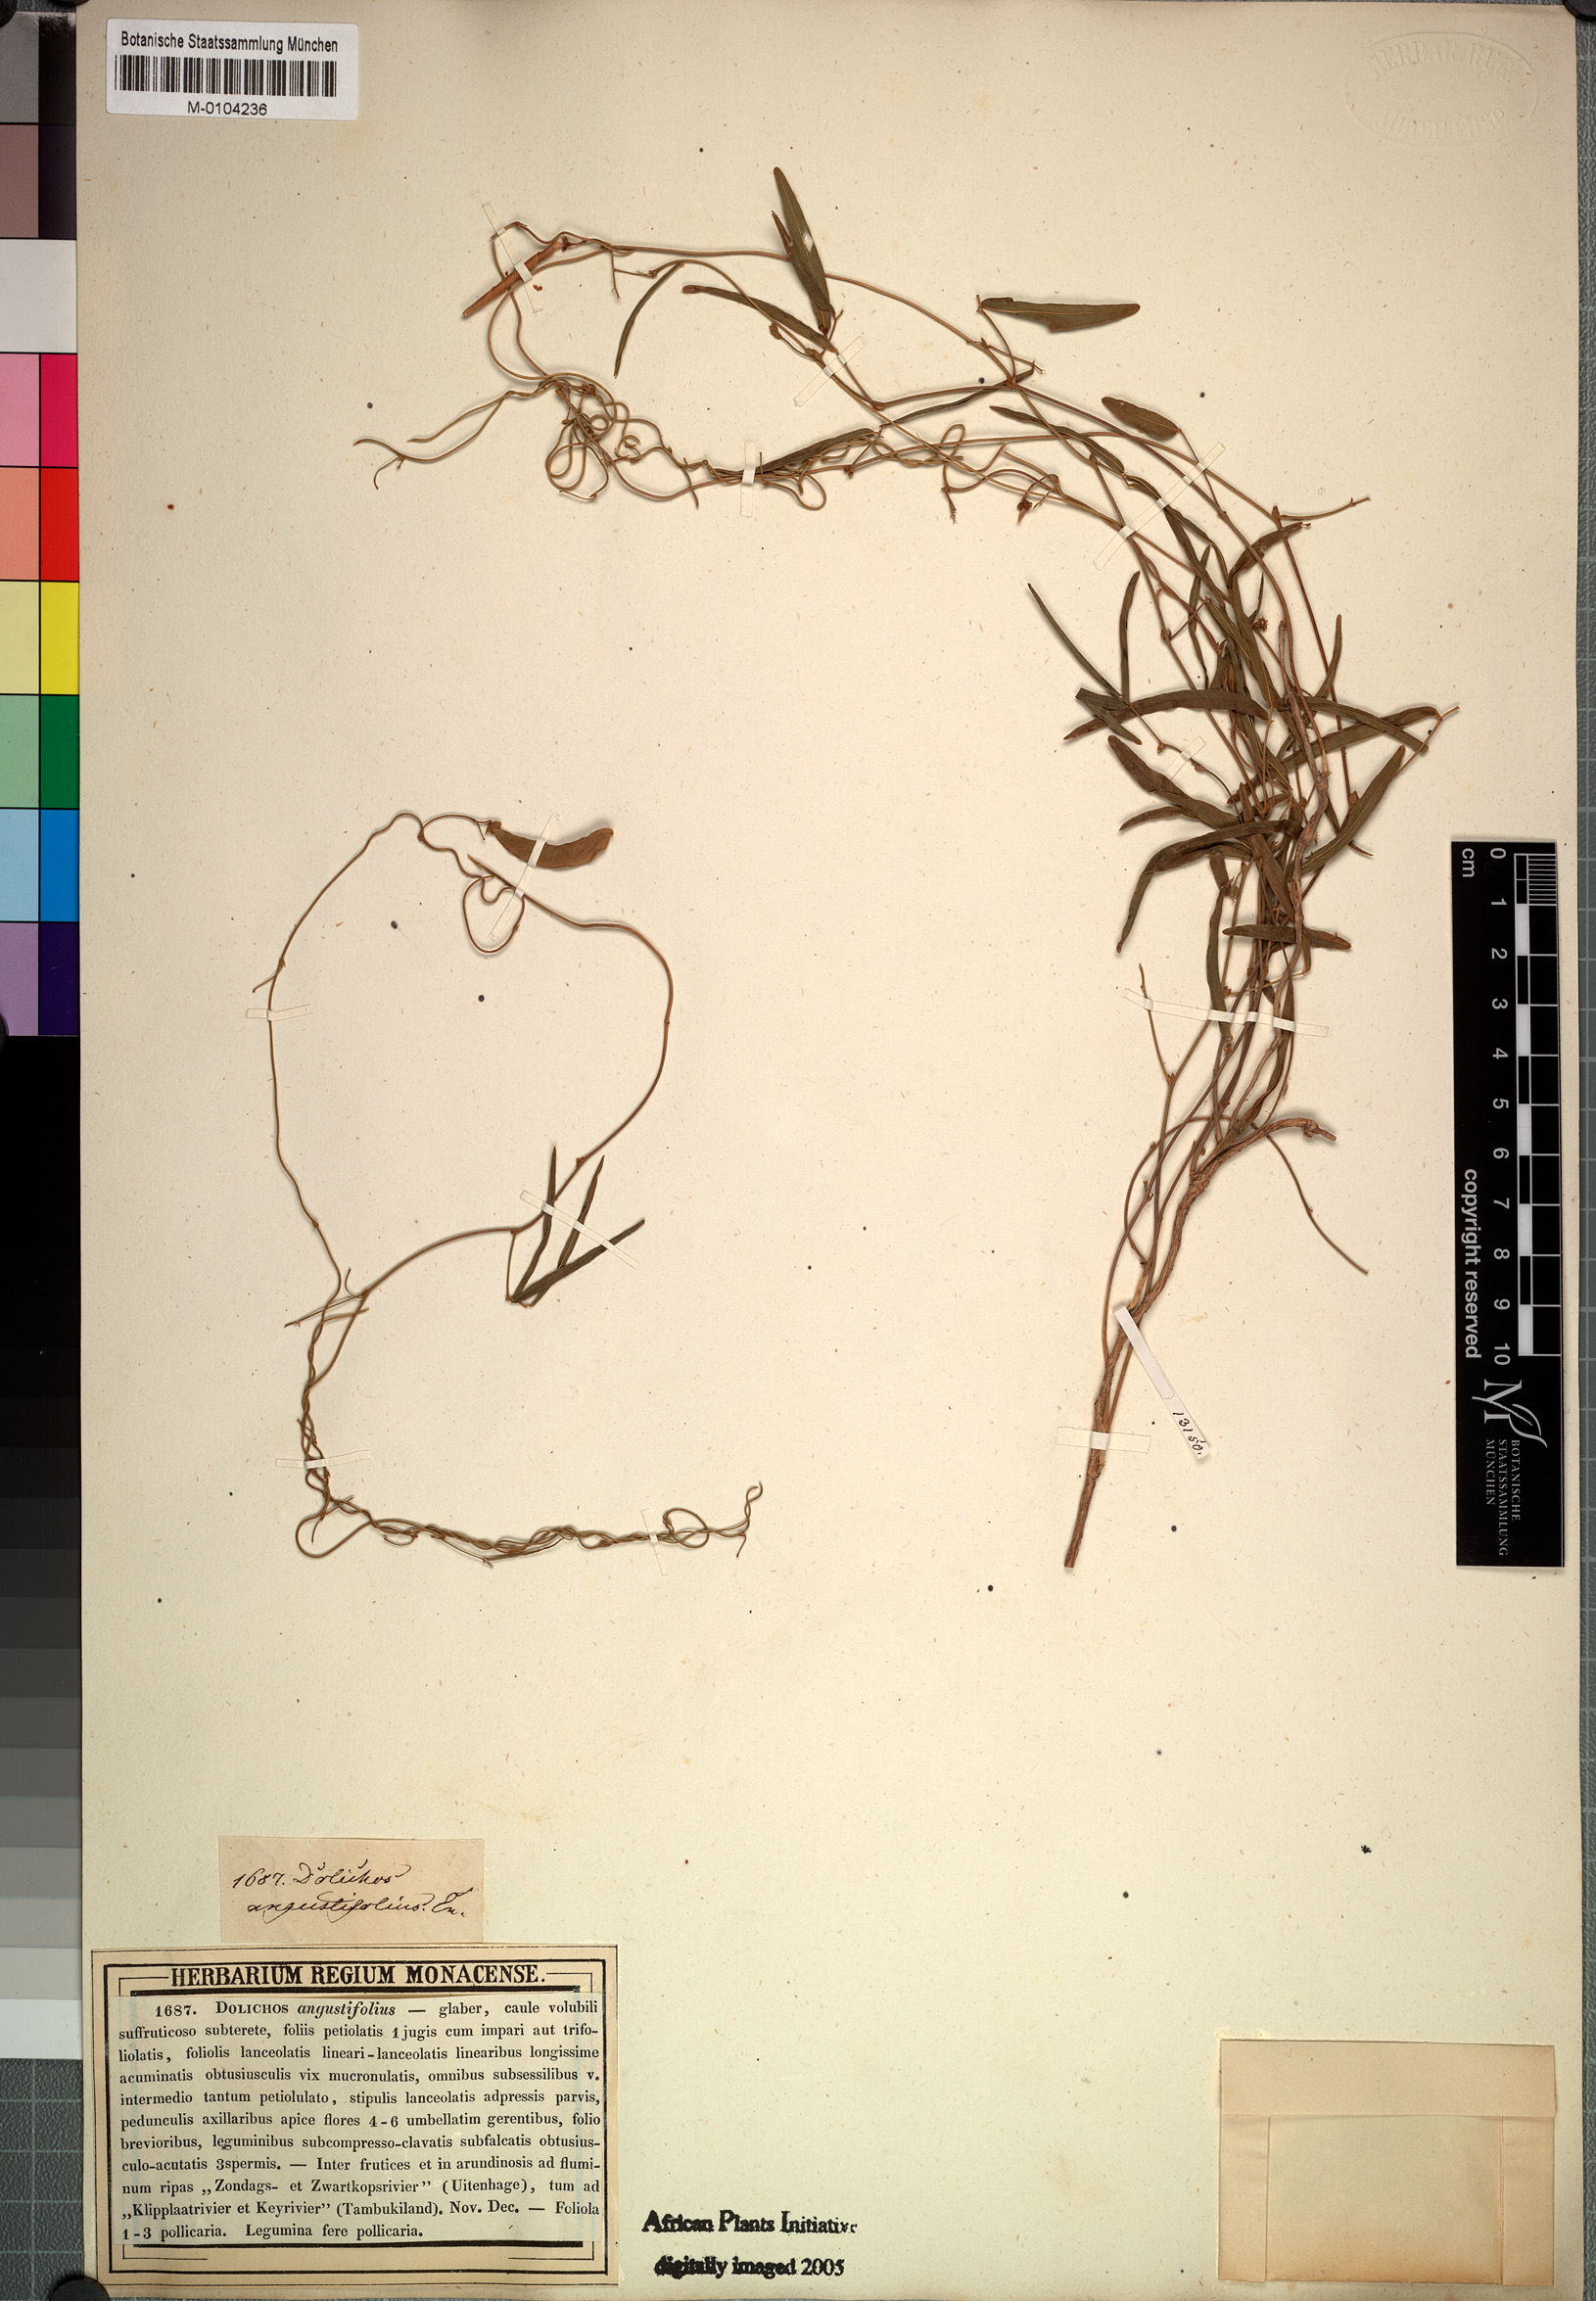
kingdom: Plantae
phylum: Tracheophyta
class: Magnoliopsida
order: Fabales
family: Fabaceae
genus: Dolichos
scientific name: Dolichos angustissimus
